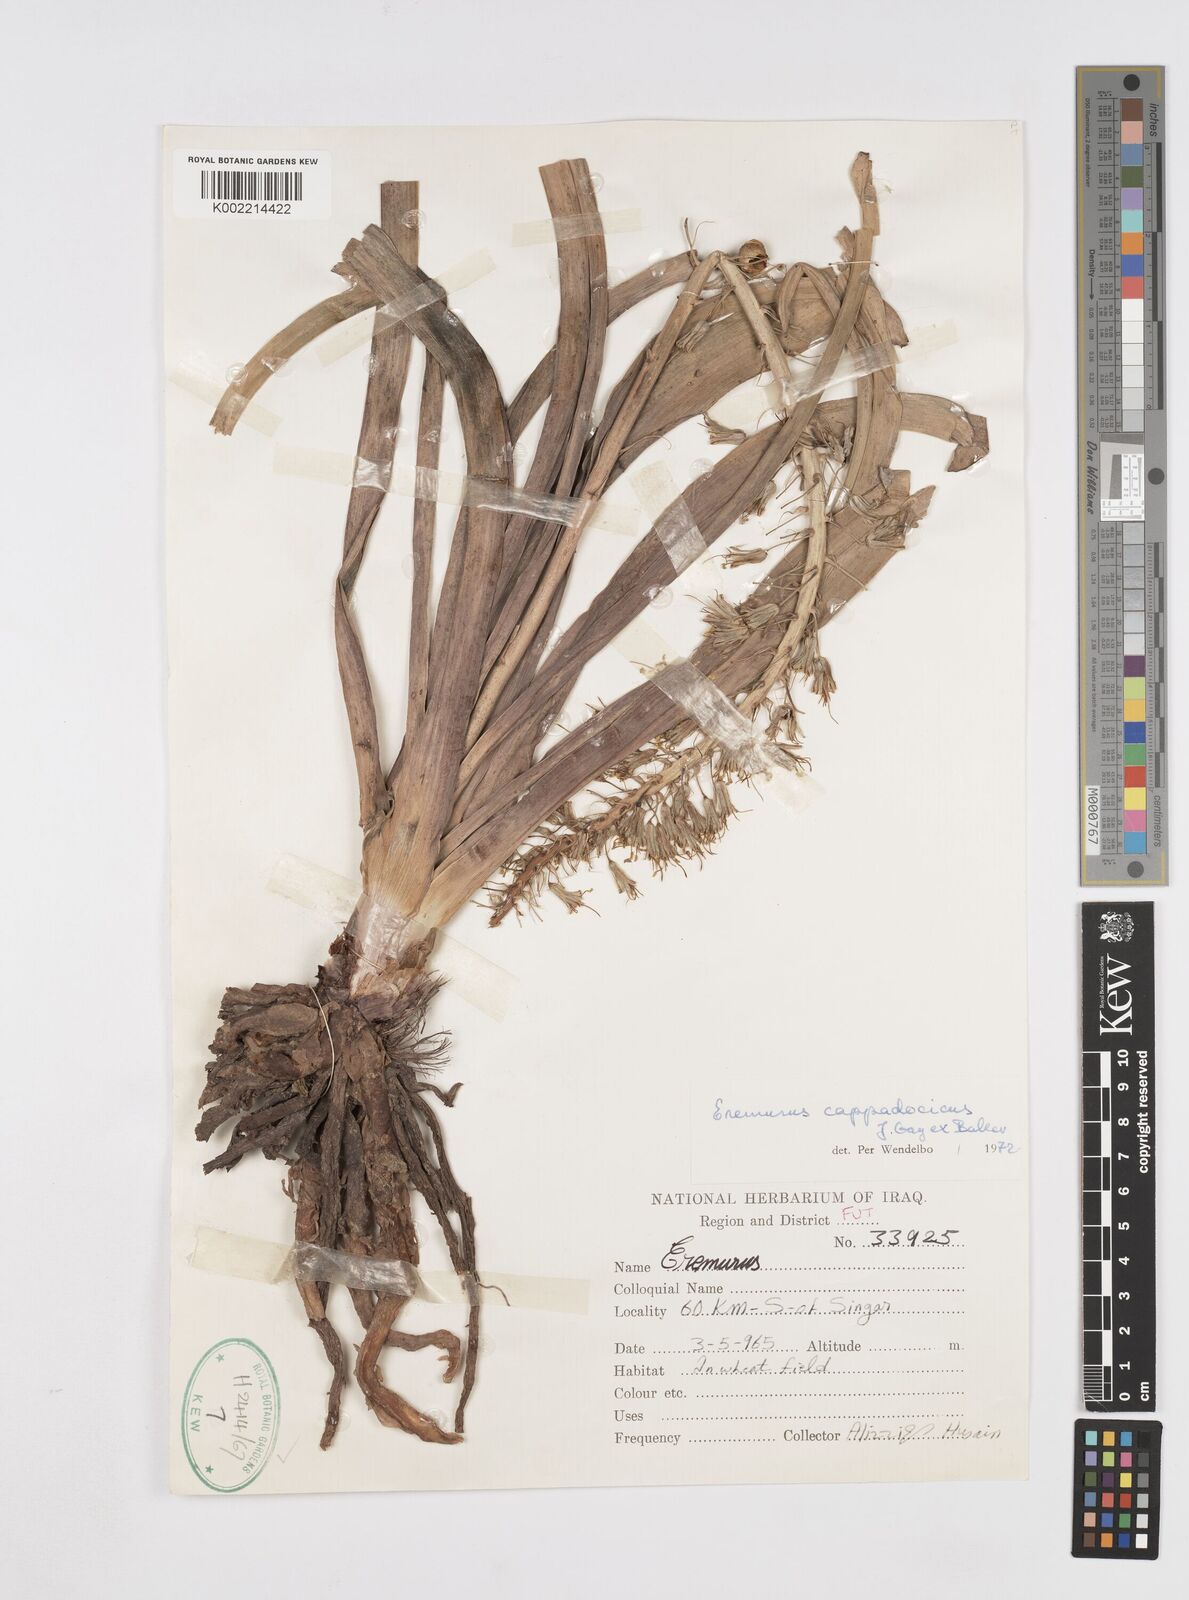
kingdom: Plantae
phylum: Tracheophyta
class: Liliopsida
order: Asparagales
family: Asphodelaceae
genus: Eremurus
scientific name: Eremurus cappadocicus
